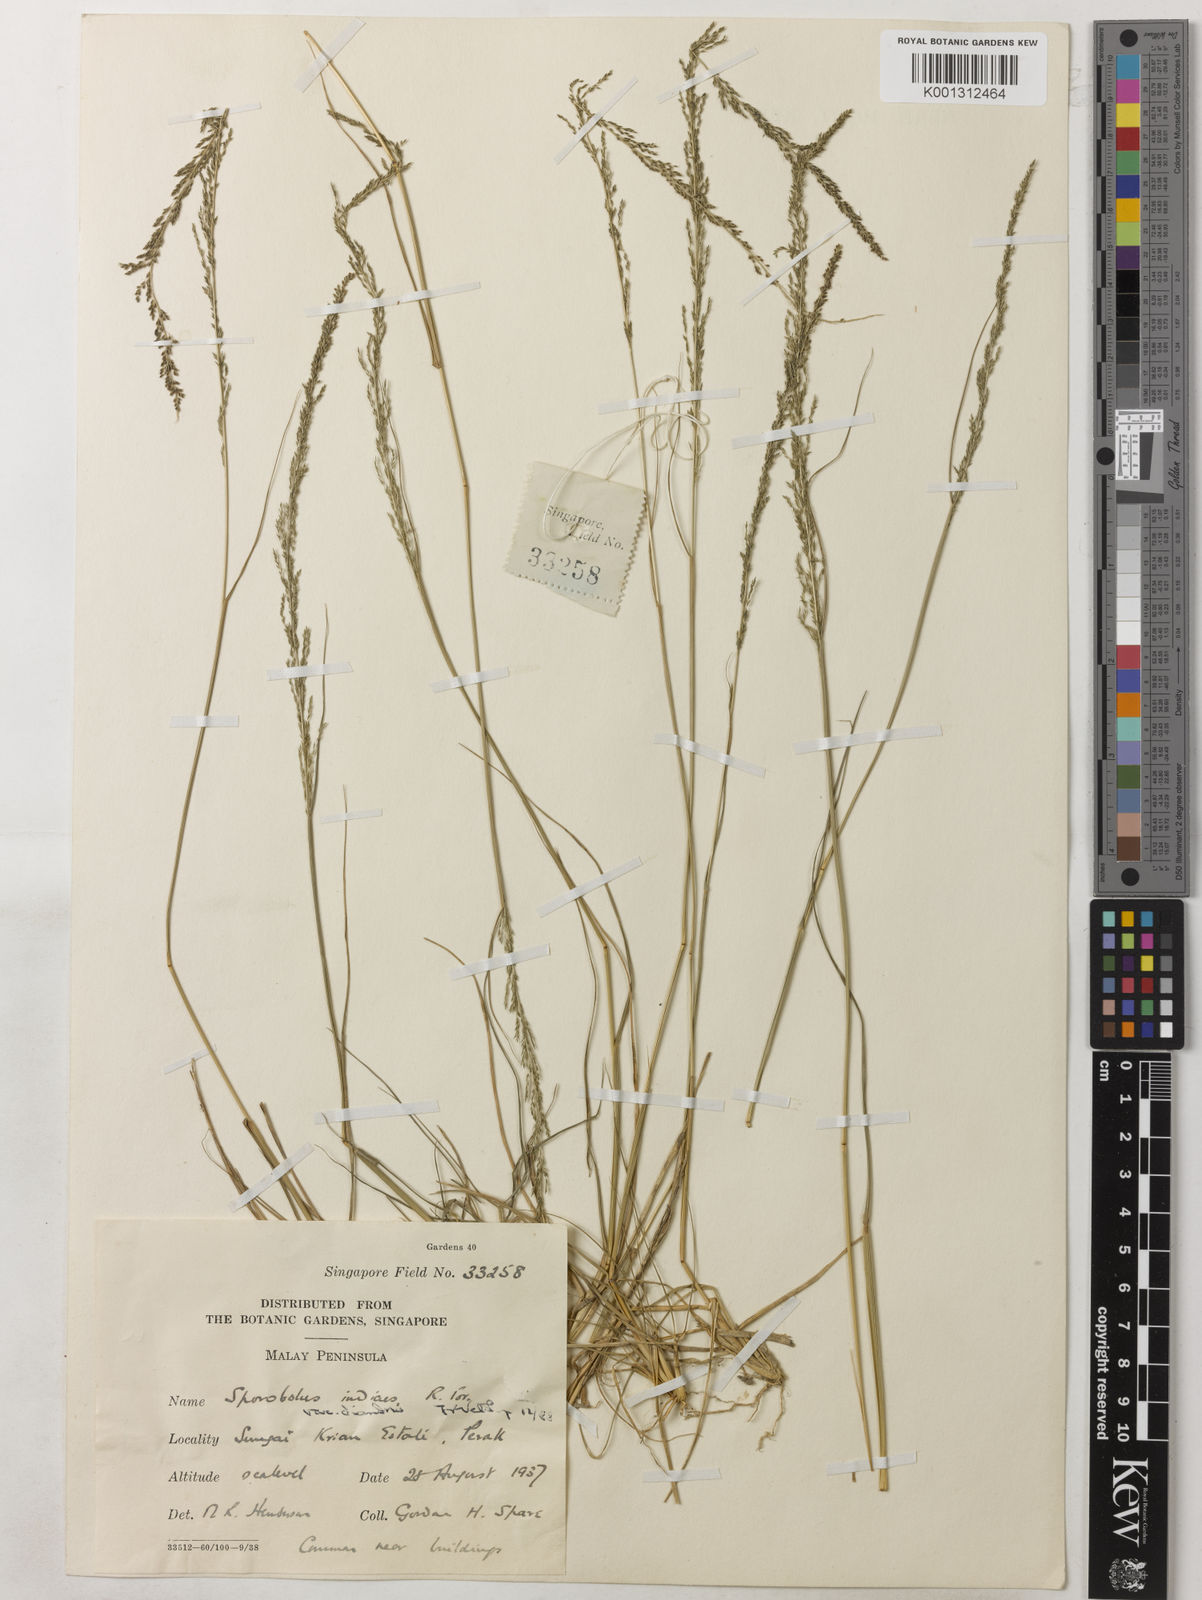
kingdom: Plantae
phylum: Tracheophyta
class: Liliopsida
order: Poales
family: Poaceae
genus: Sporobolus
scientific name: Sporobolus diandrus
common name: Tussock dropseed
